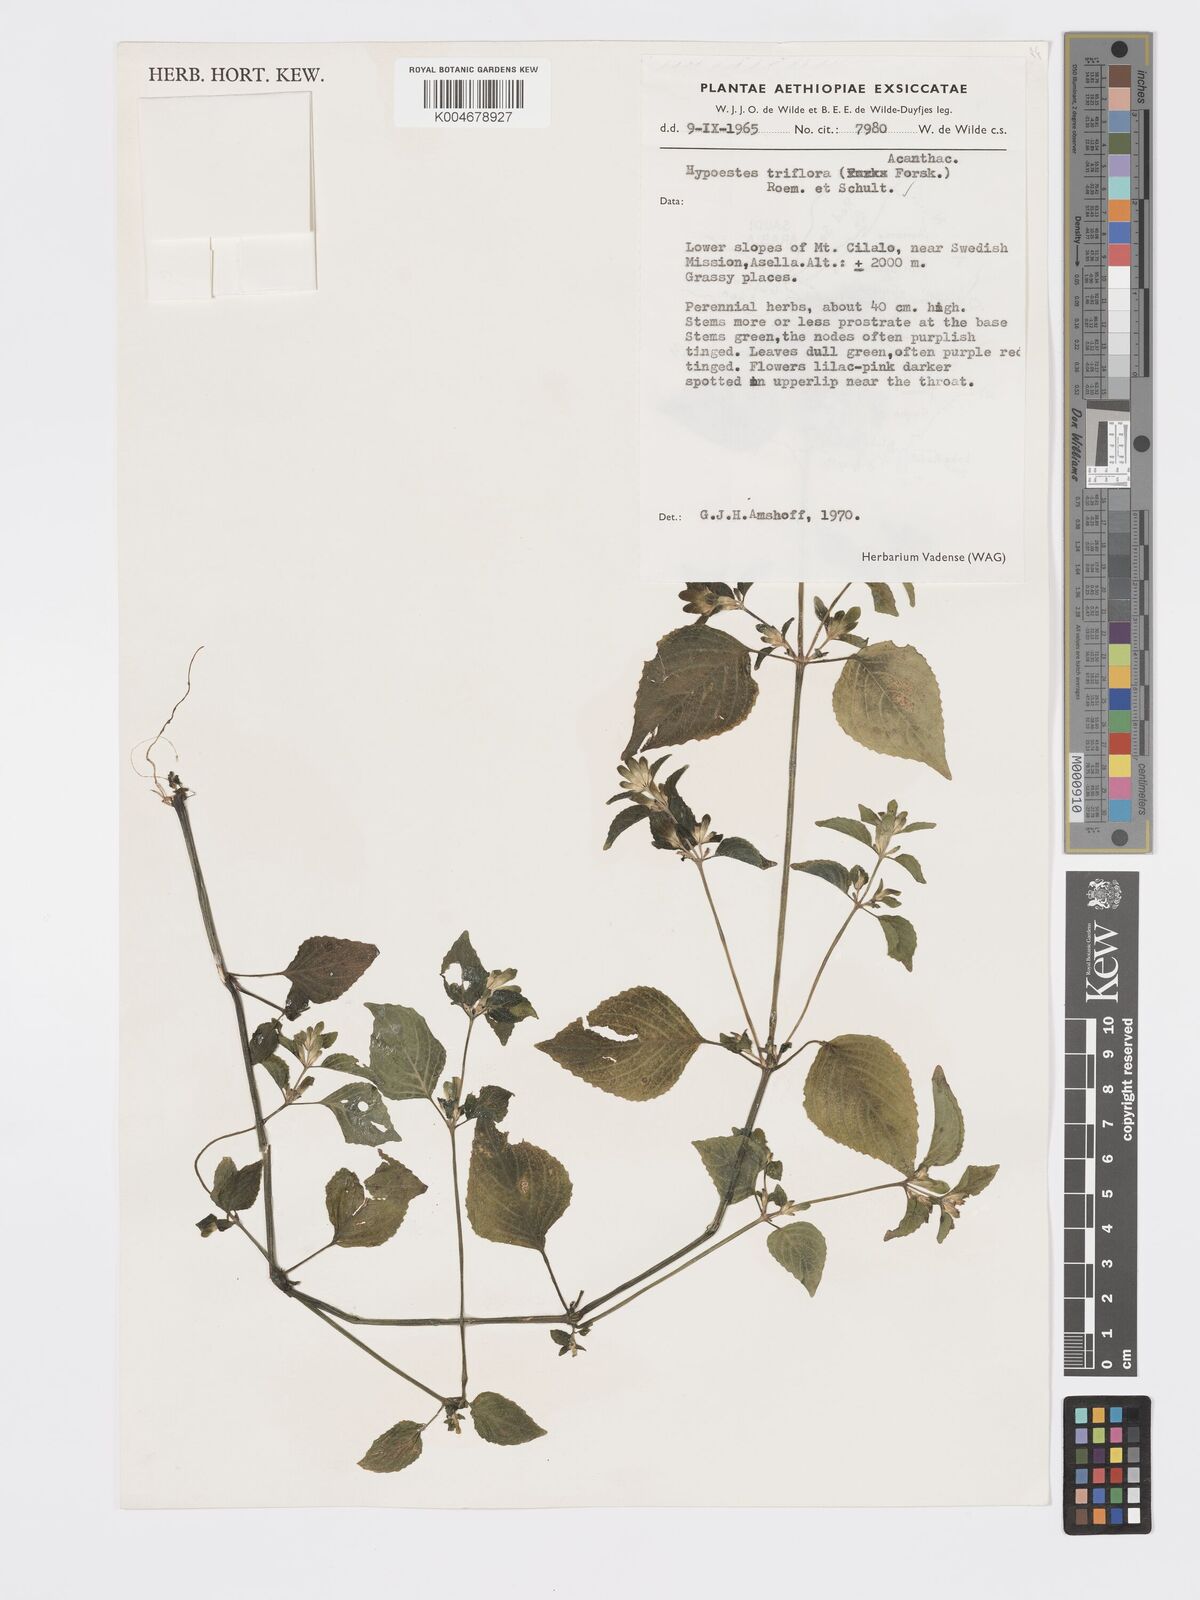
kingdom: Plantae
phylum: Tracheophyta
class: Magnoliopsida
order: Lamiales
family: Acanthaceae
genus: Hypoestes
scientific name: Hypoestes triflora
